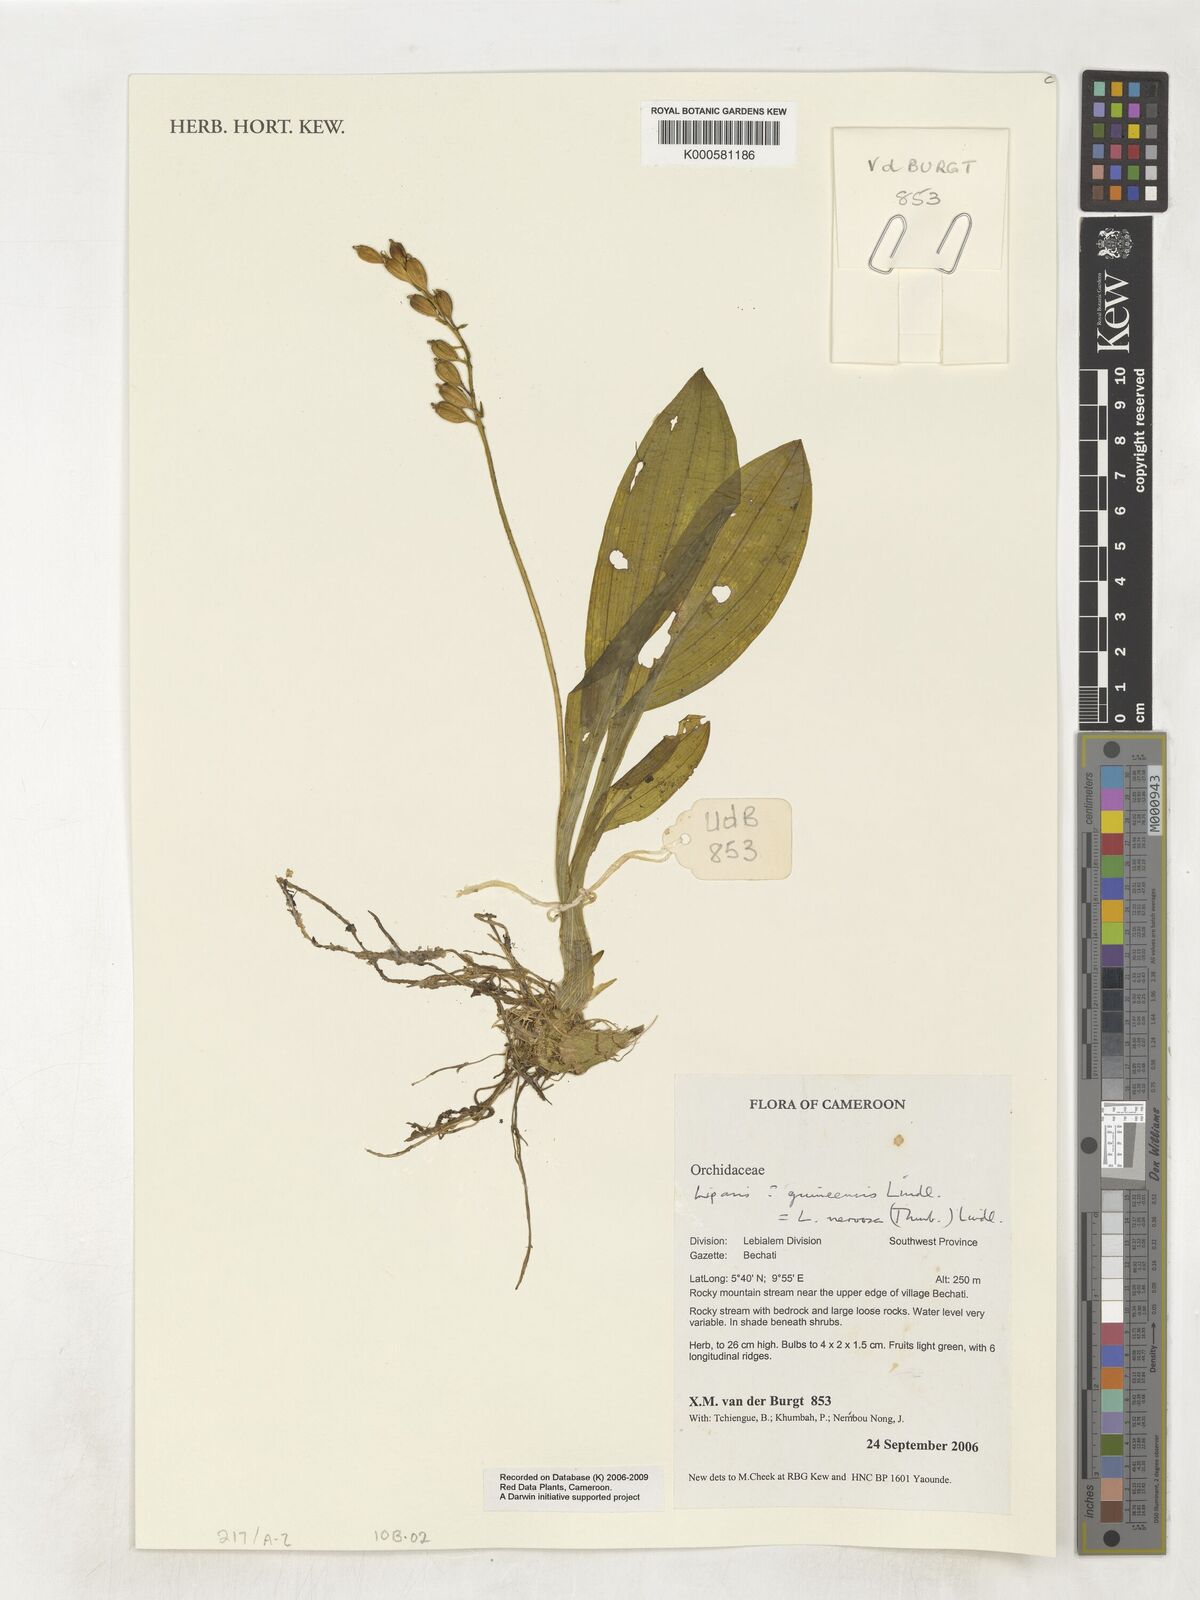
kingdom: Plantae
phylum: Tracheophyta
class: Liliopsida
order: Asparagales
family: Orchidaceae
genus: Liparis
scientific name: Liparis nervosa
